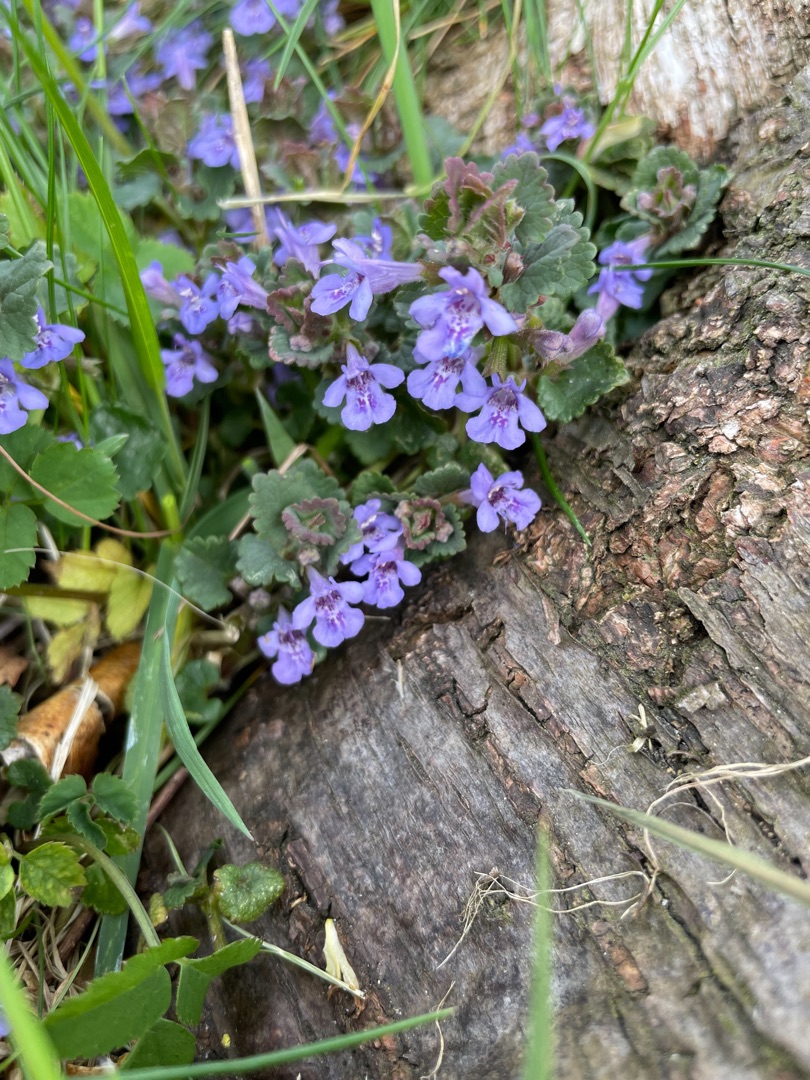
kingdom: Plantae
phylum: Tracheophyta
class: Magnoliopsida
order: Lamiales
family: Lamiaceae
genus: Glechoma
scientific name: Glechoma hederacea
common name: Korsknap
